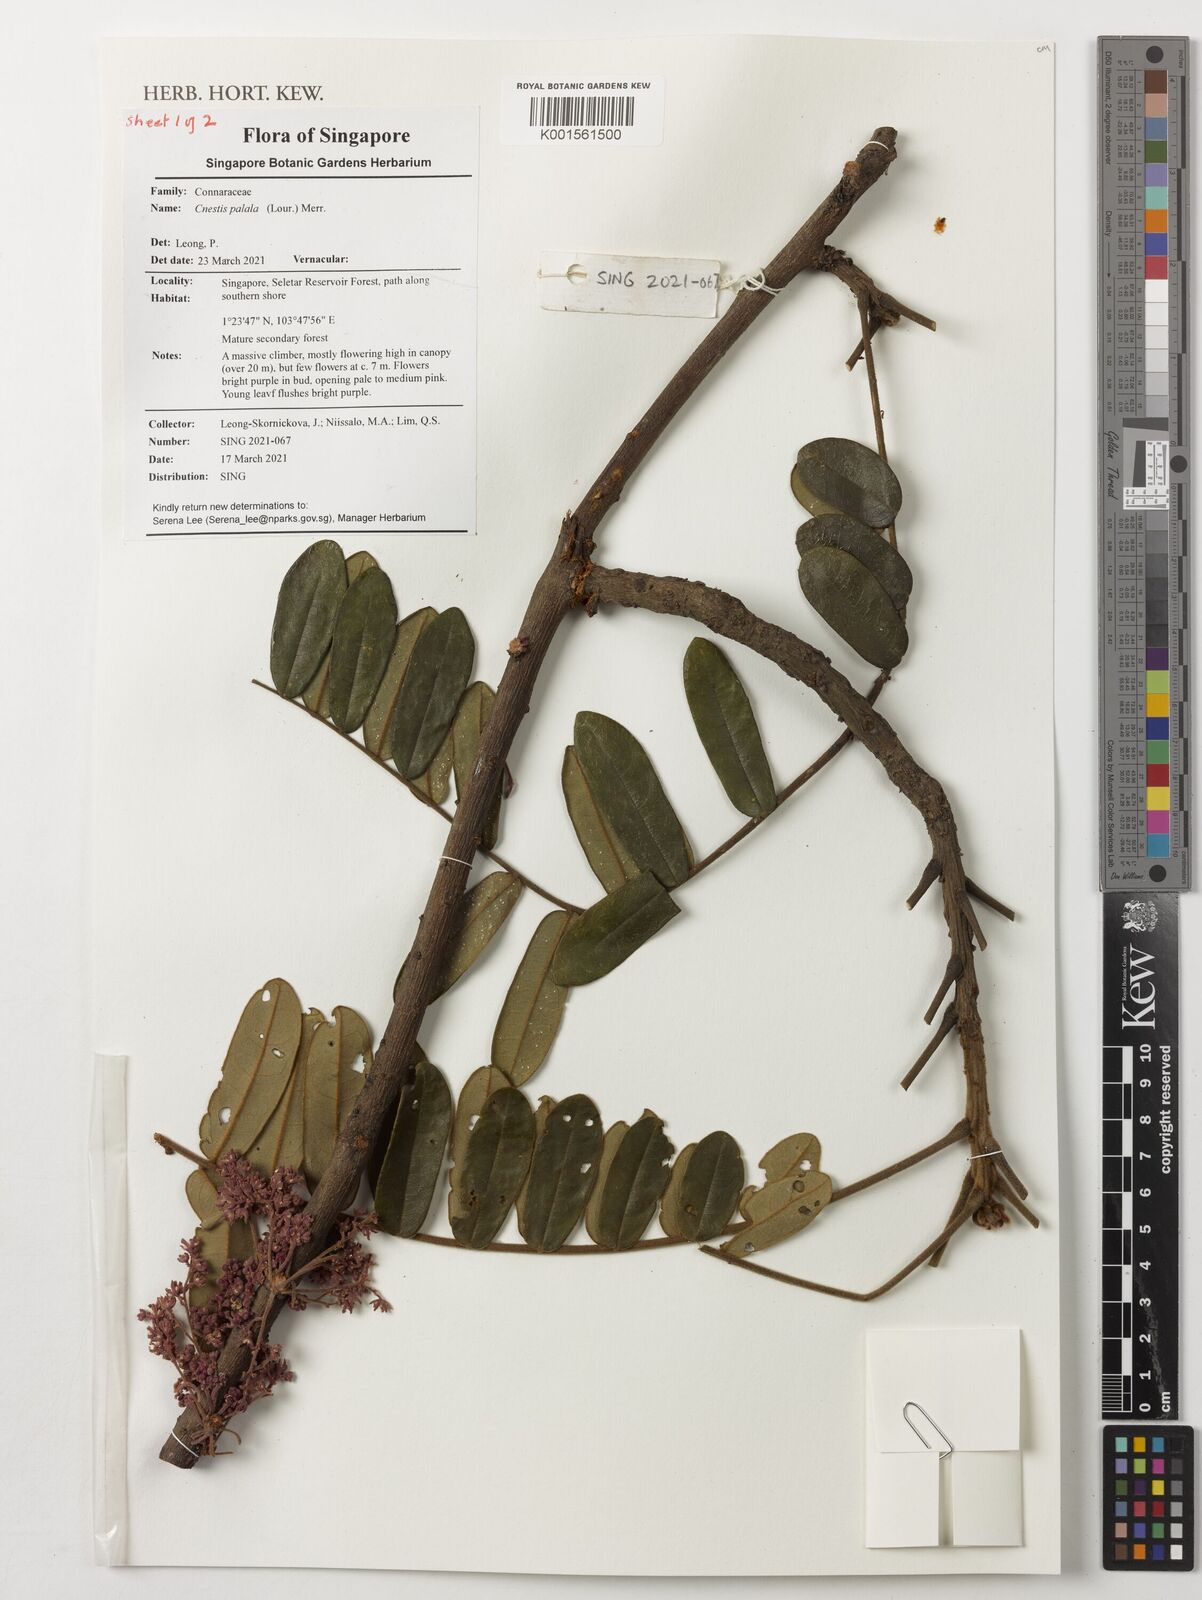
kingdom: Plantae
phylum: Tracheophyta
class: Magnoliopsida
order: Oxalidales
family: Connaraceae
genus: Cnestis
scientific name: Cnestis palala
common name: Stinging-hair cnestis
